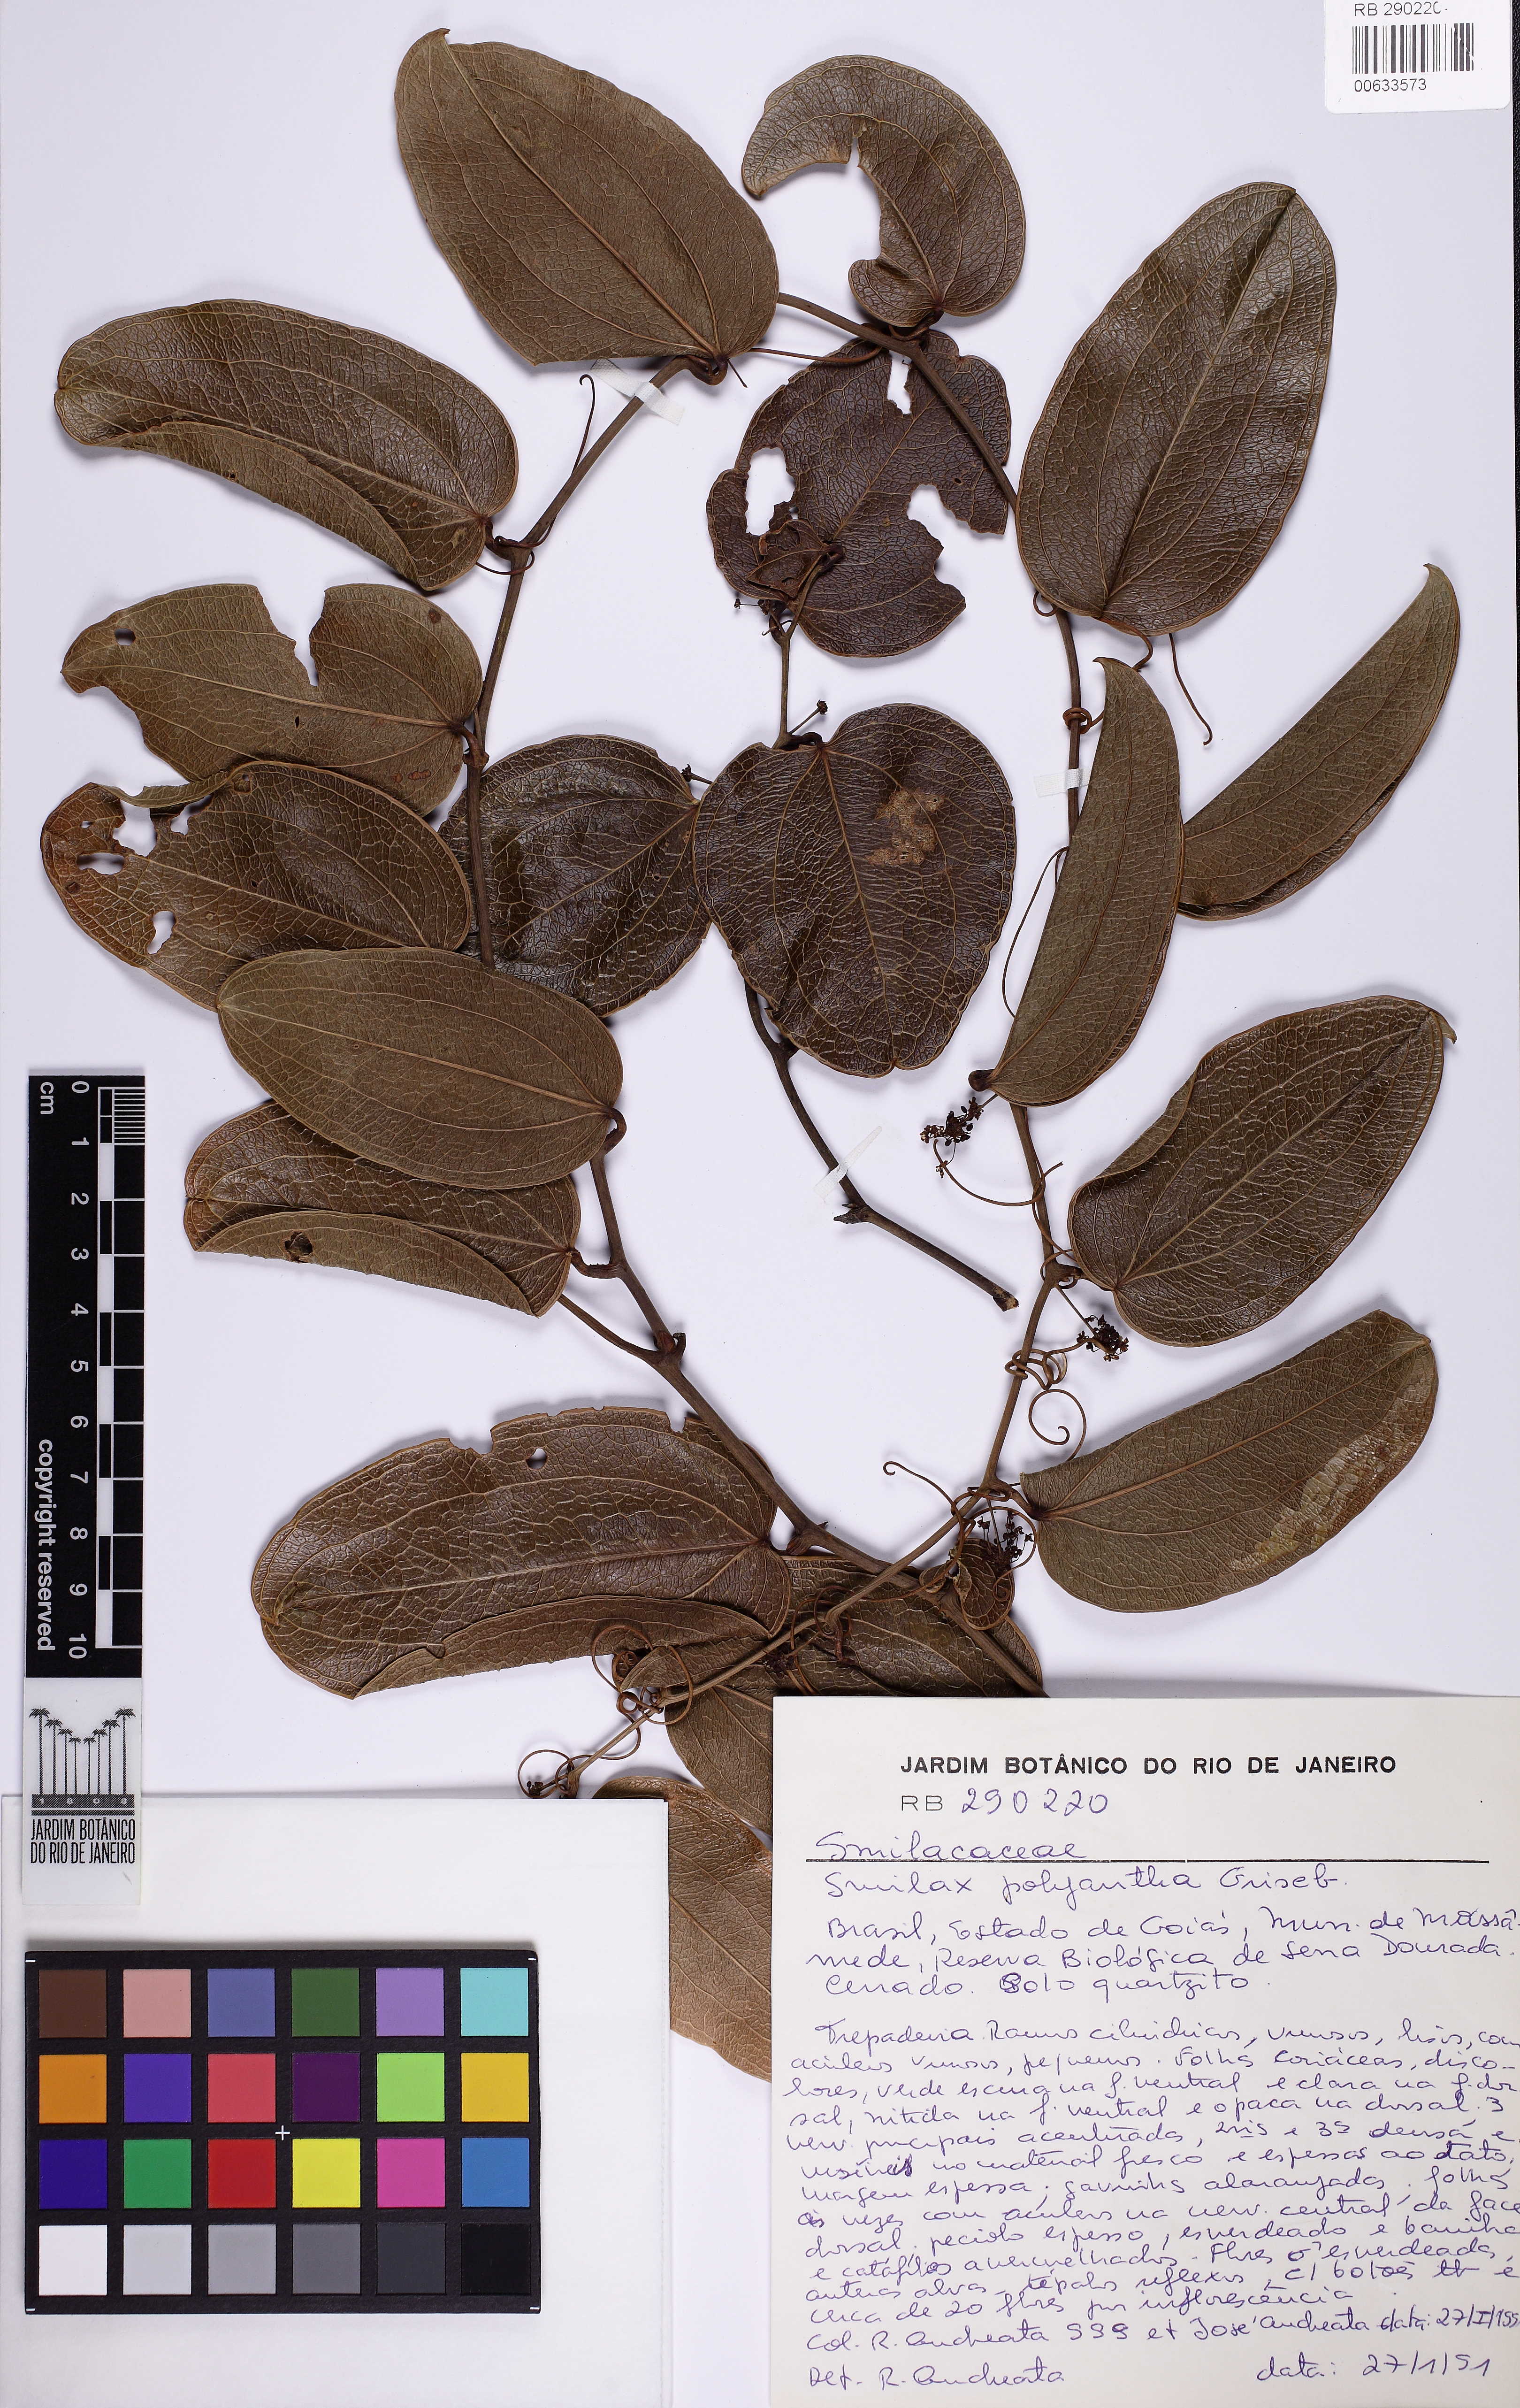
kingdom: Plantae
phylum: Tracheophyta
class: Liliopsida
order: Liliales
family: Smilacaceae
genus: Smilax
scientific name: Smilax polyantha
